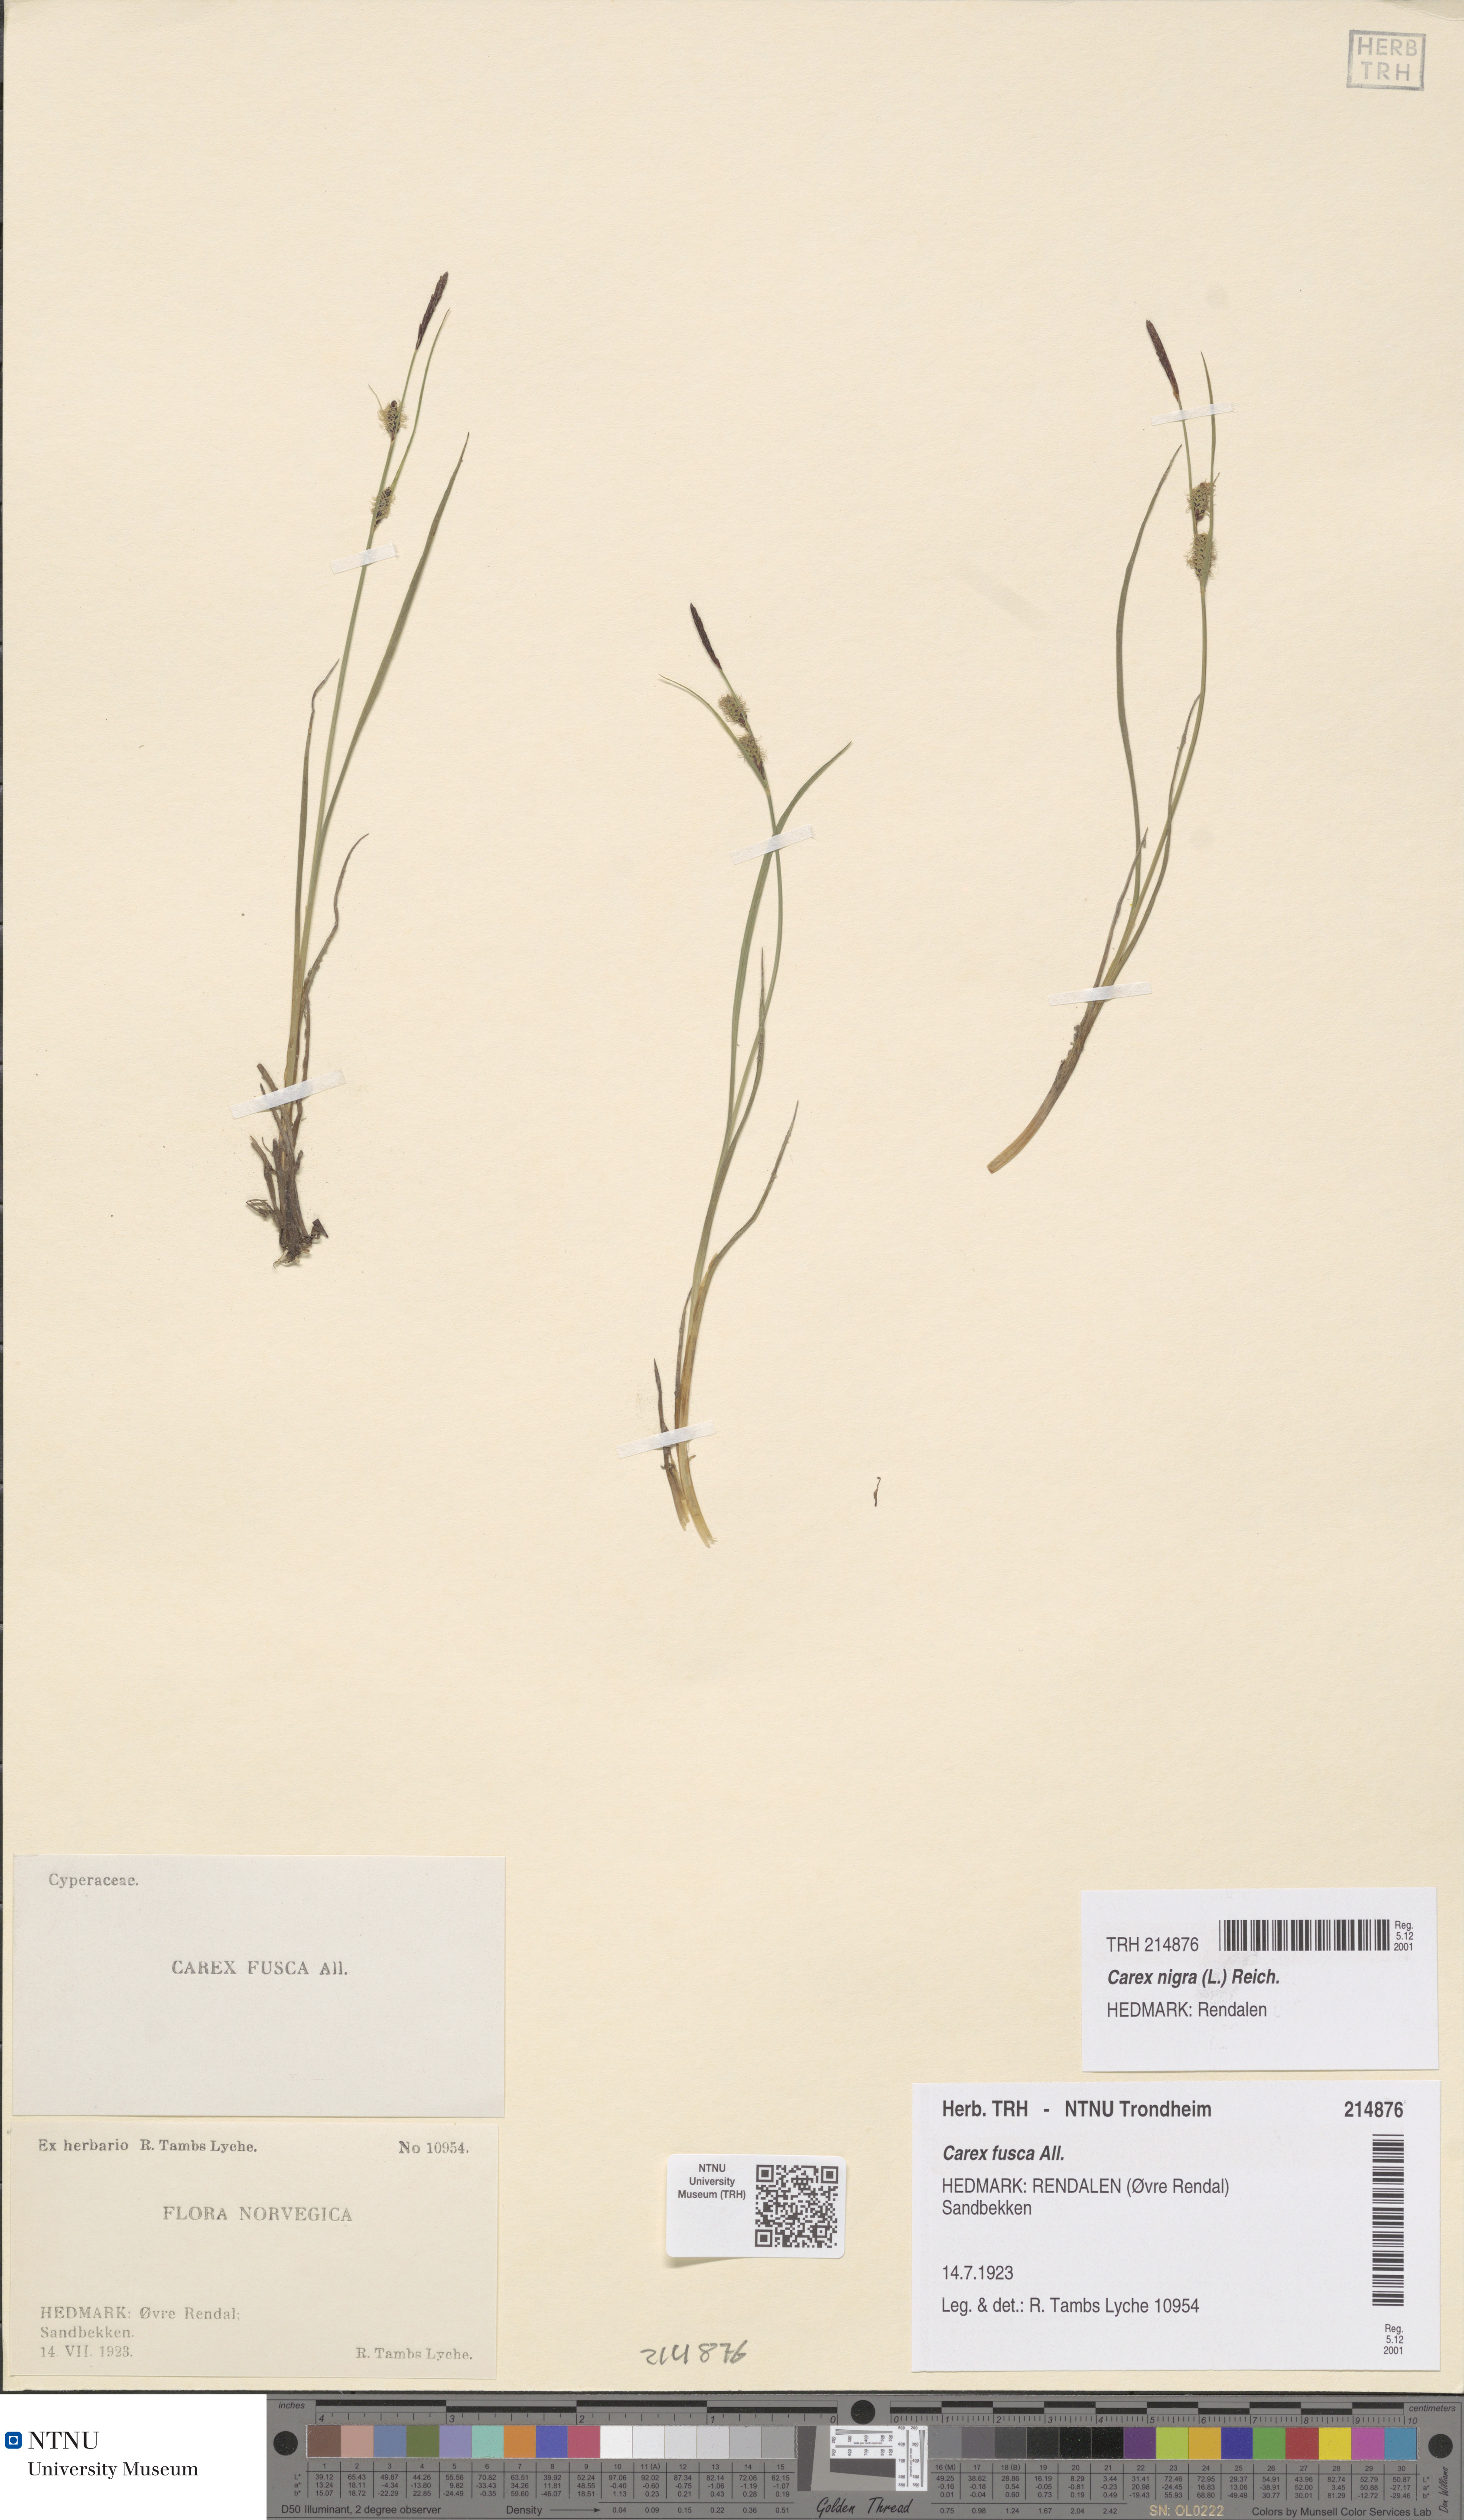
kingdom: Plantae
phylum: Tracheophyta
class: Liliopsida
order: Poales
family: Cyperaceae
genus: Carex
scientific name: Carex nigra
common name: Common sedge
